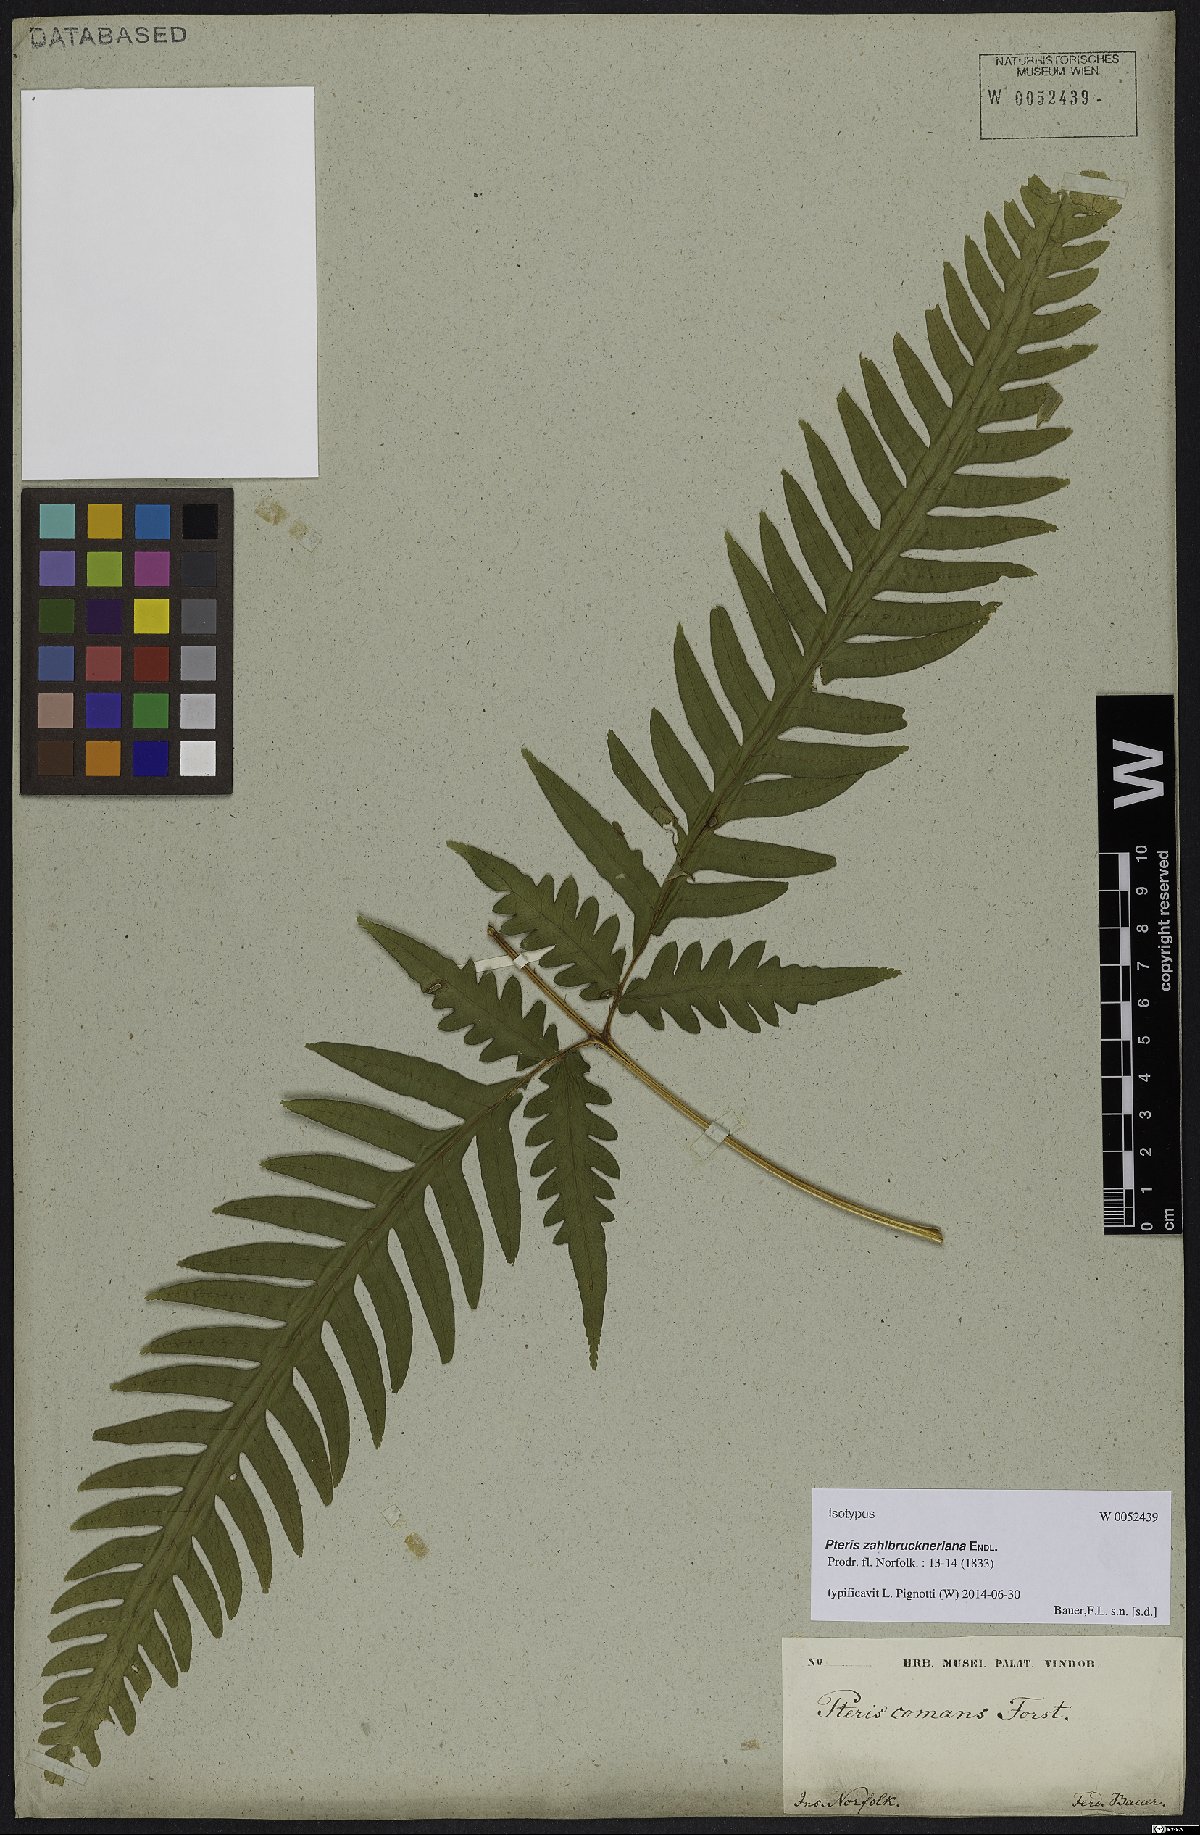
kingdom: Plantae
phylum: Tracheophyta
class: Polypodiopsida
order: Polypodiales
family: Pteridaceae
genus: Pteris
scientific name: Pteris zahlbruckneriana
